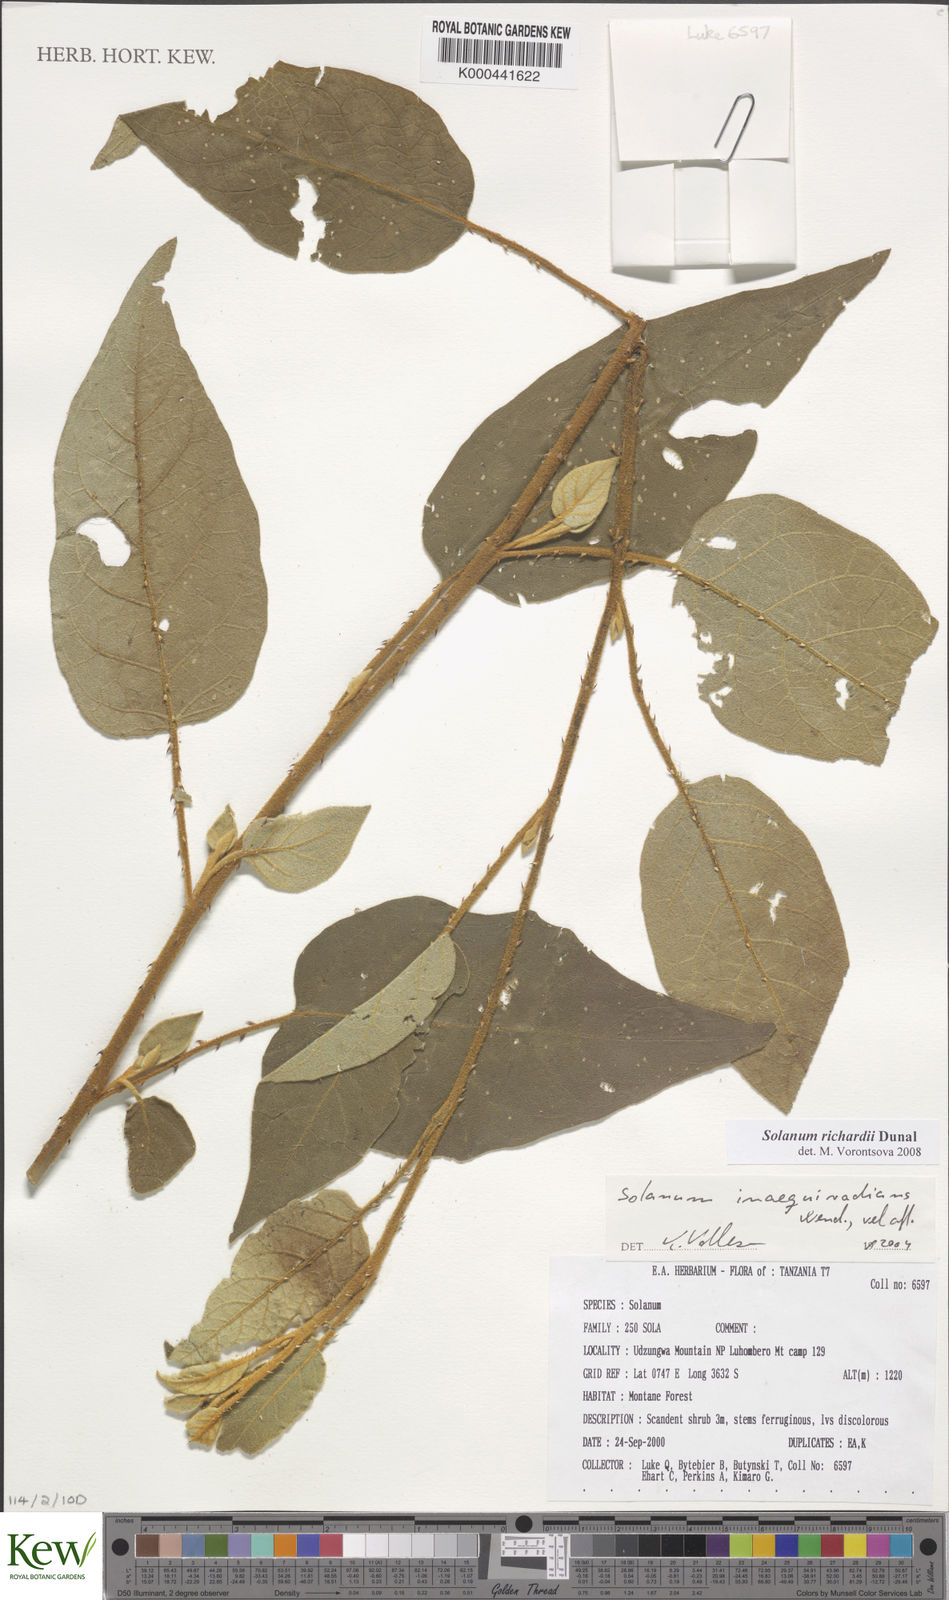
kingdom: Plantae
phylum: Tracheophyta
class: Magnoliopsida
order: Solanales
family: Solanaceae
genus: Solanum
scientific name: Solanum richardii
